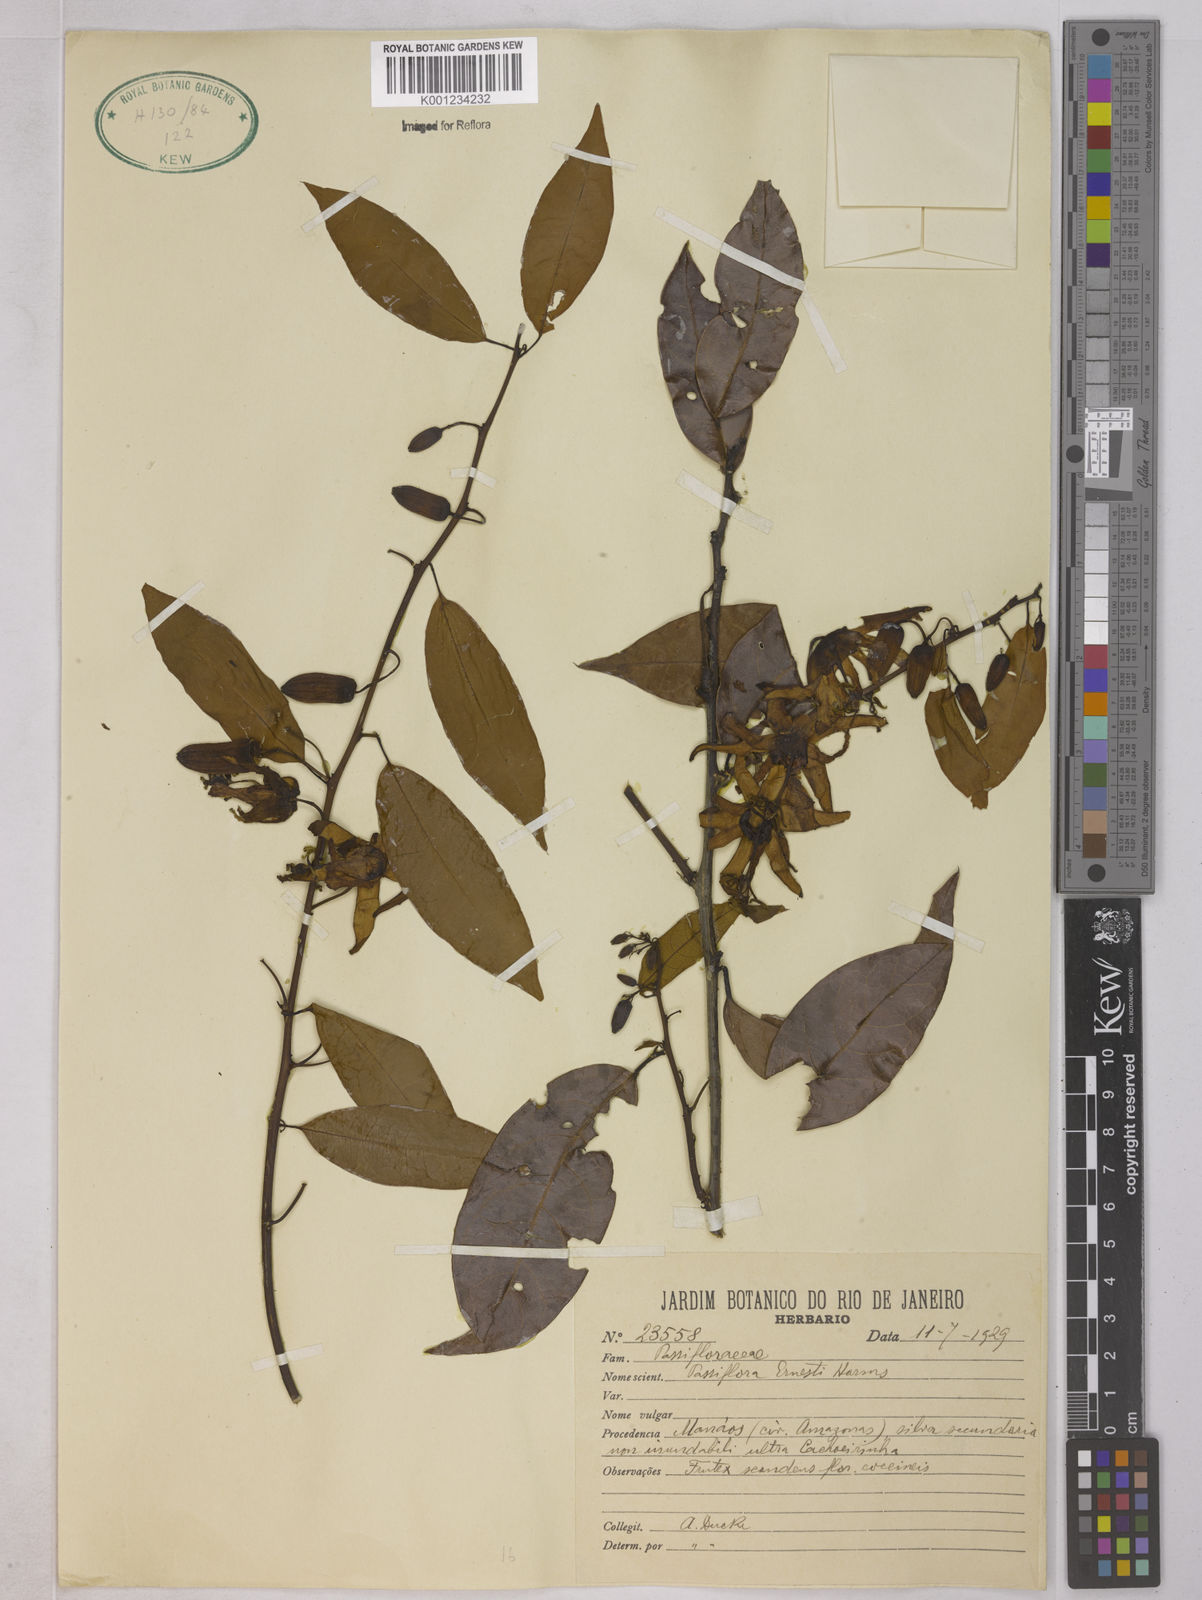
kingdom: Plantae
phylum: Tracheophyta
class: Magnoliopsida
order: Malpighiales
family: Passifloraceae
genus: Passiflora
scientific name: Passiflora ernestii
